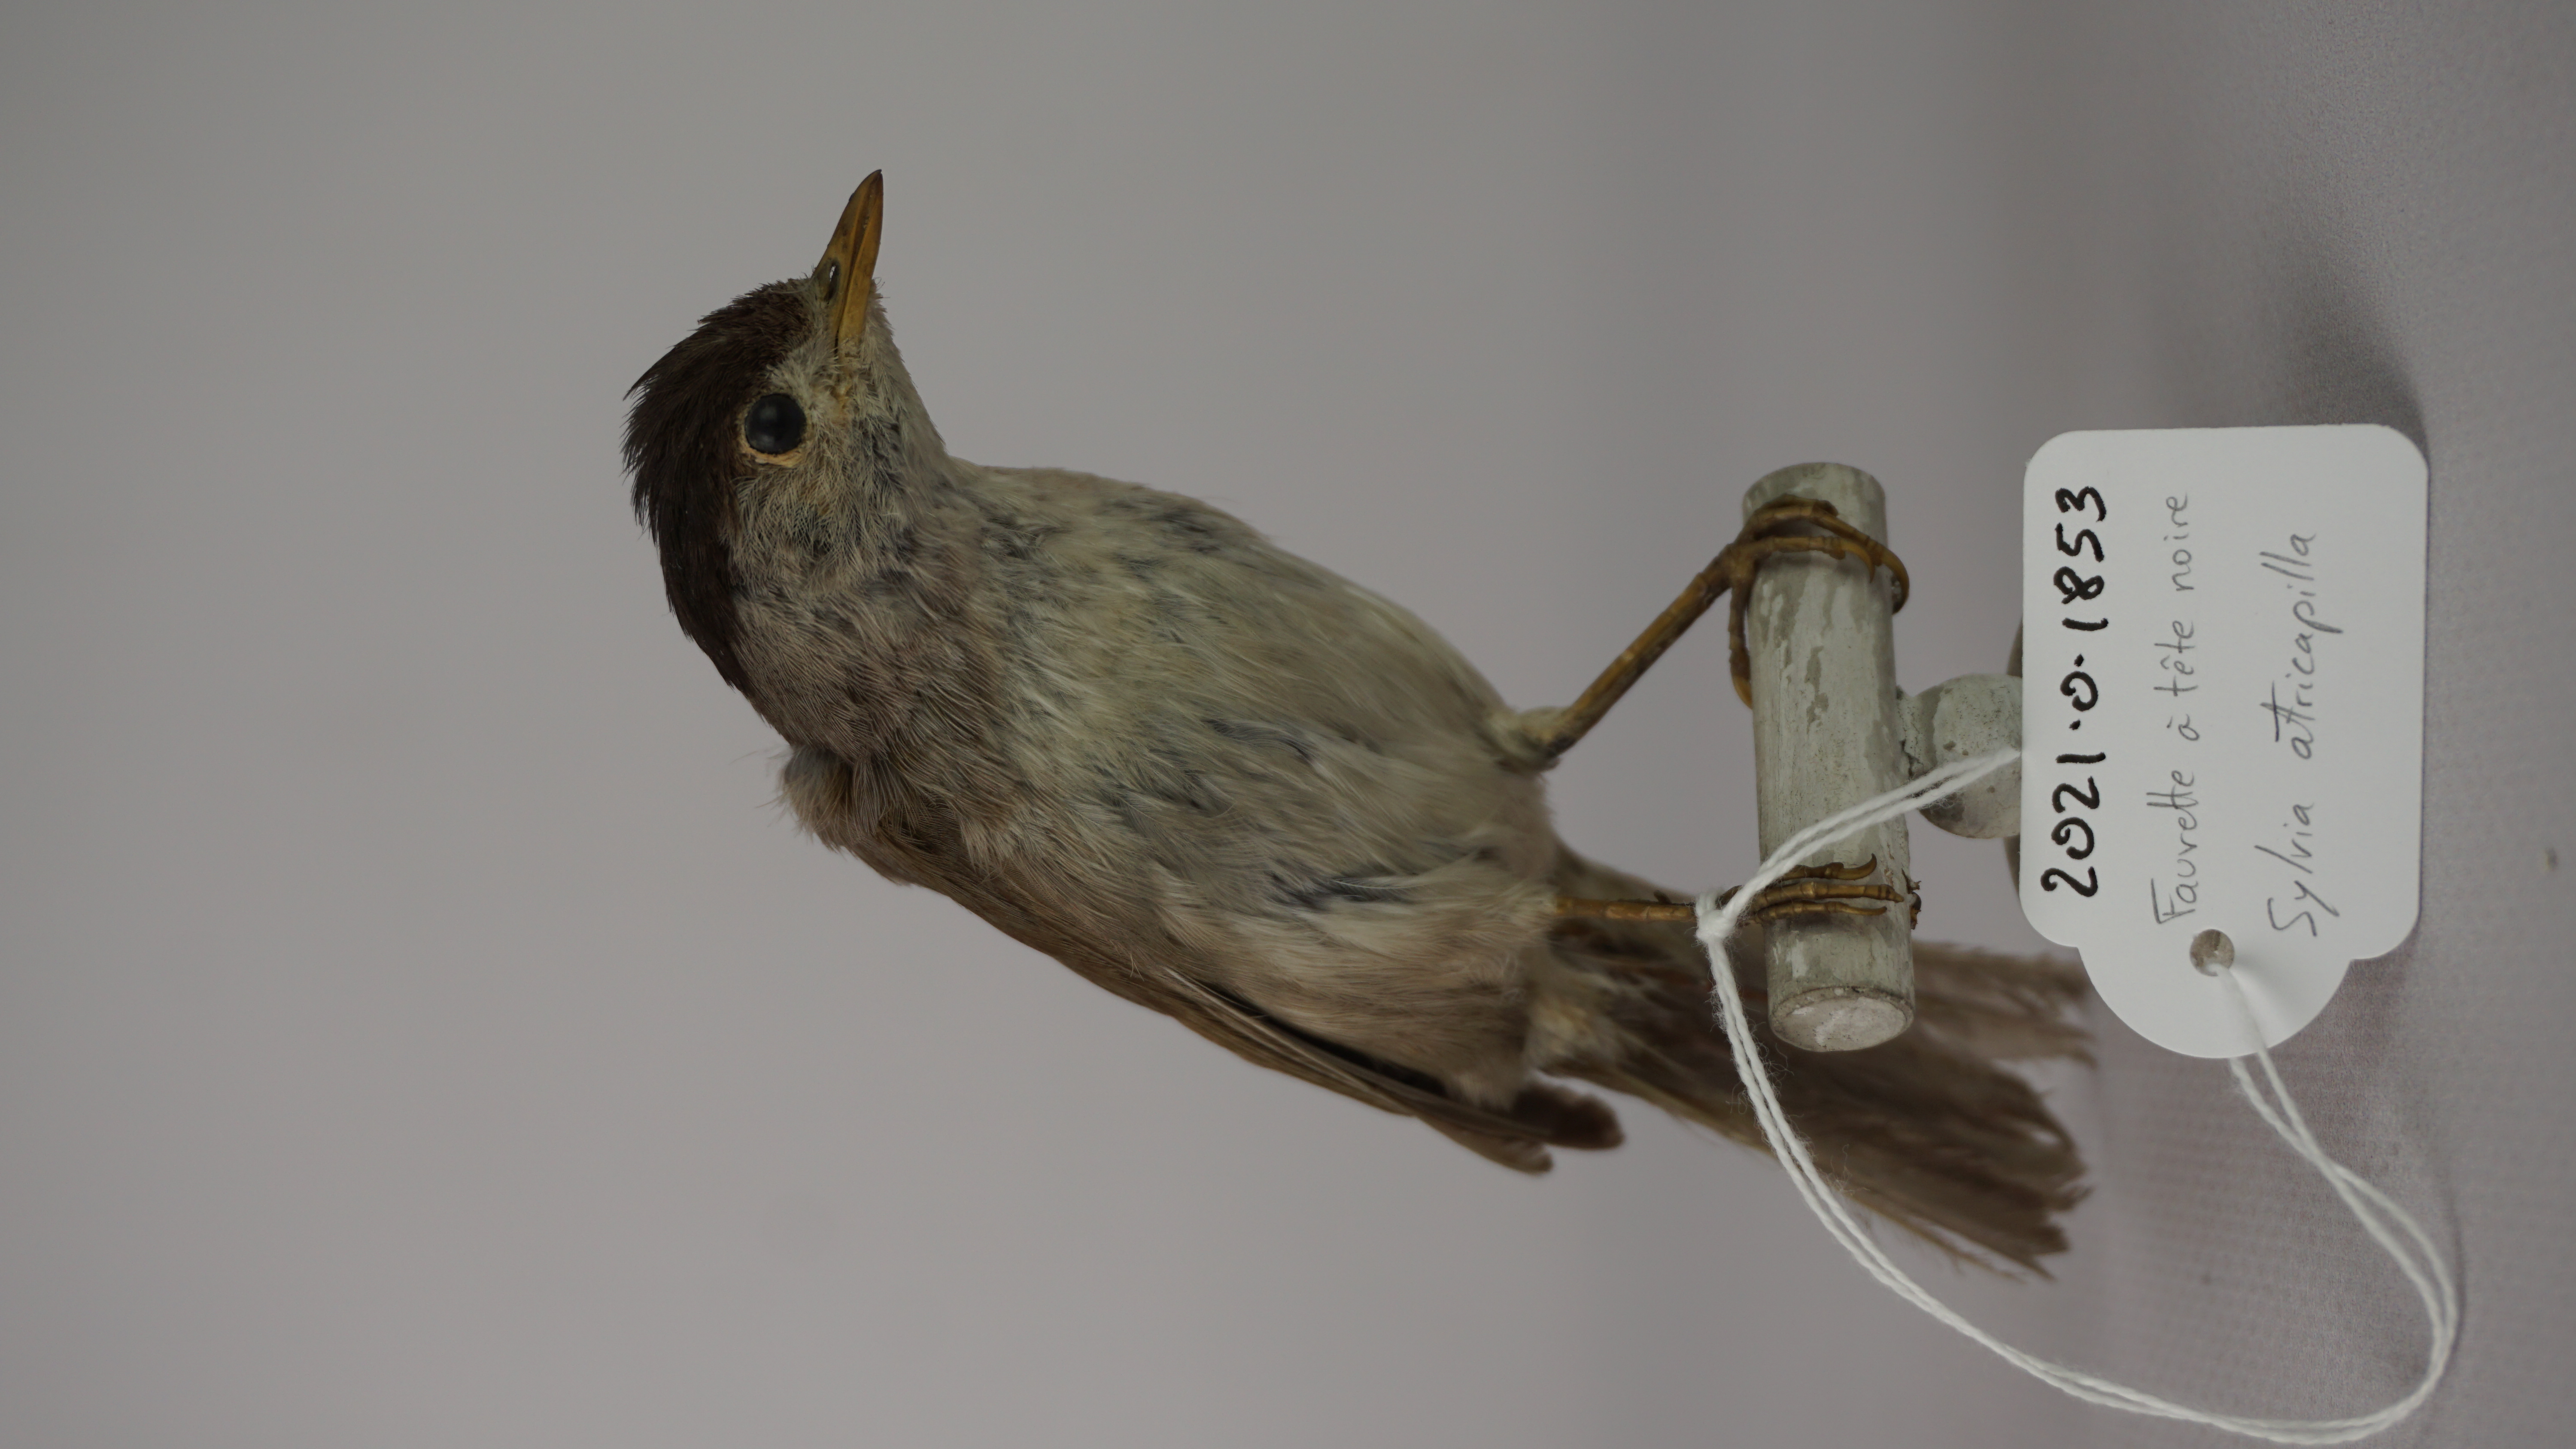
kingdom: Animalia
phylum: Chordata
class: Aves
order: Passeriformes
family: Sylviidae
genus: Sylvia
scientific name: Sylvia atricapilla
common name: Eurasian blackcap
